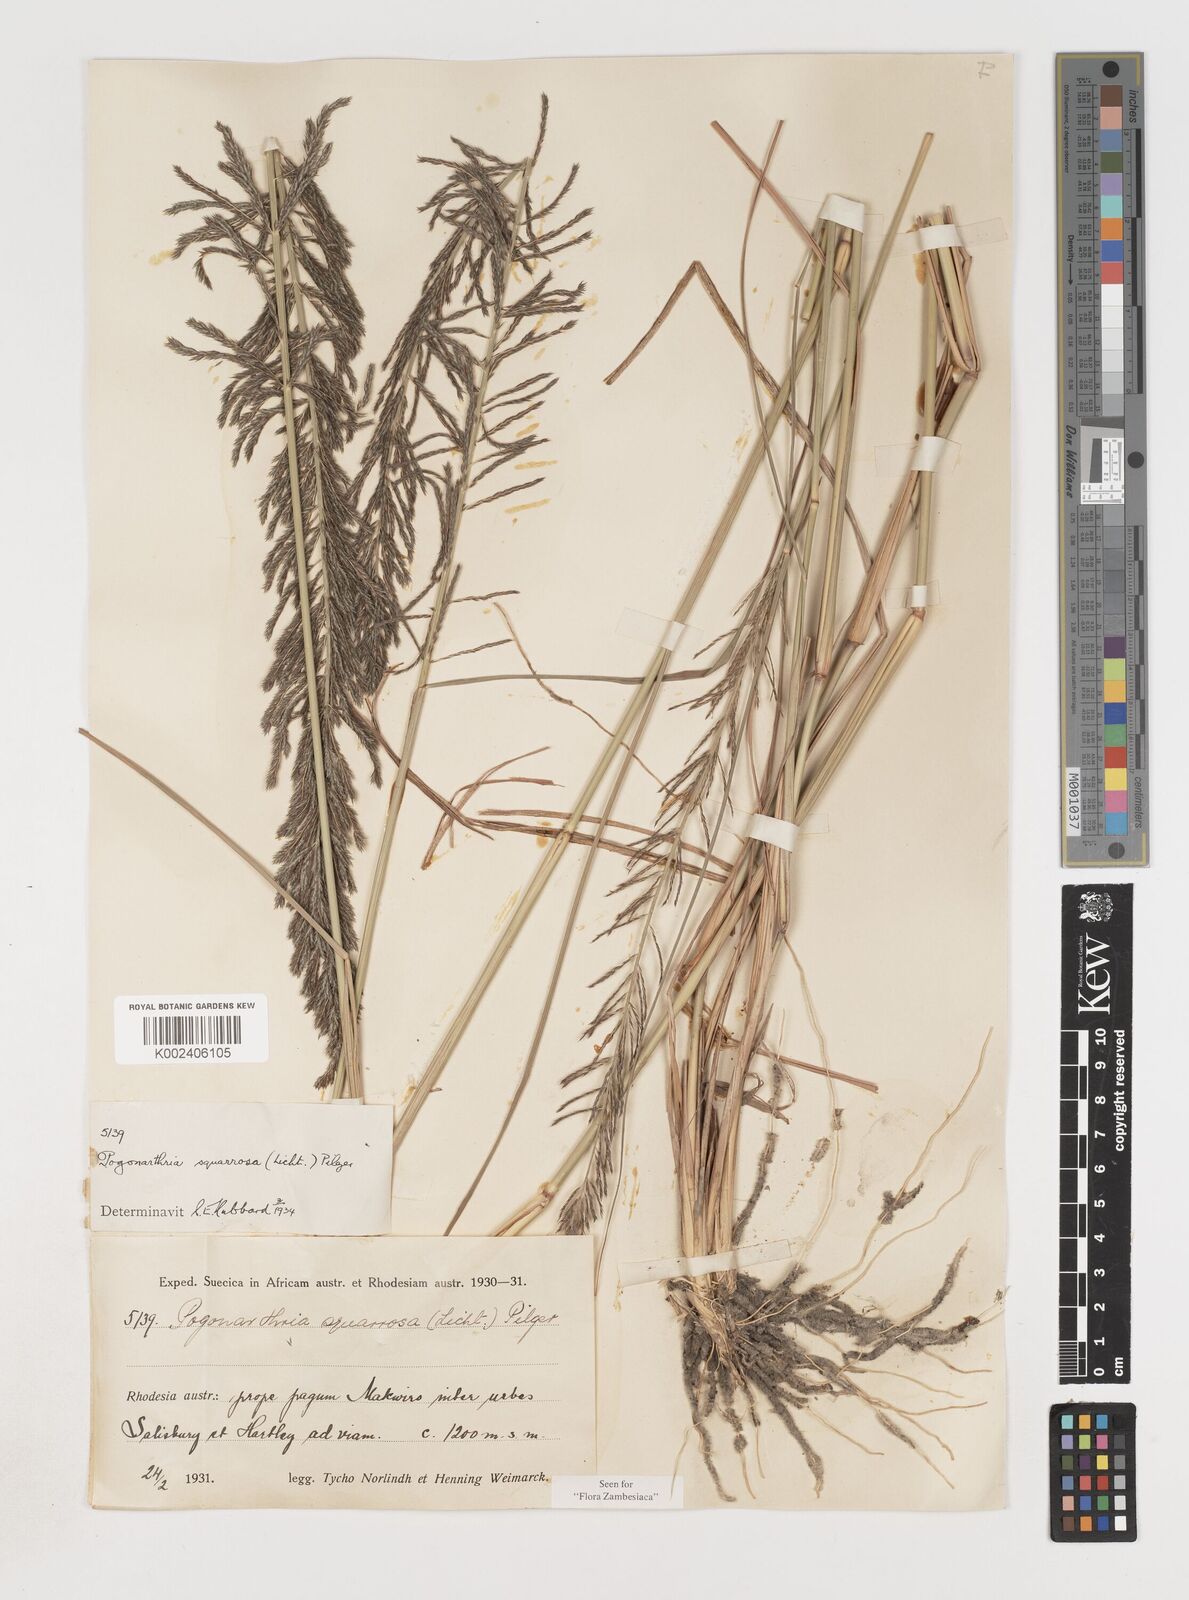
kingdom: Plantae
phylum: Tracheophyta
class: Liliopsida
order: Poales
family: Poaceae
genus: Pogonarthria
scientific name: Pogonarthria squarrosa
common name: Grass
